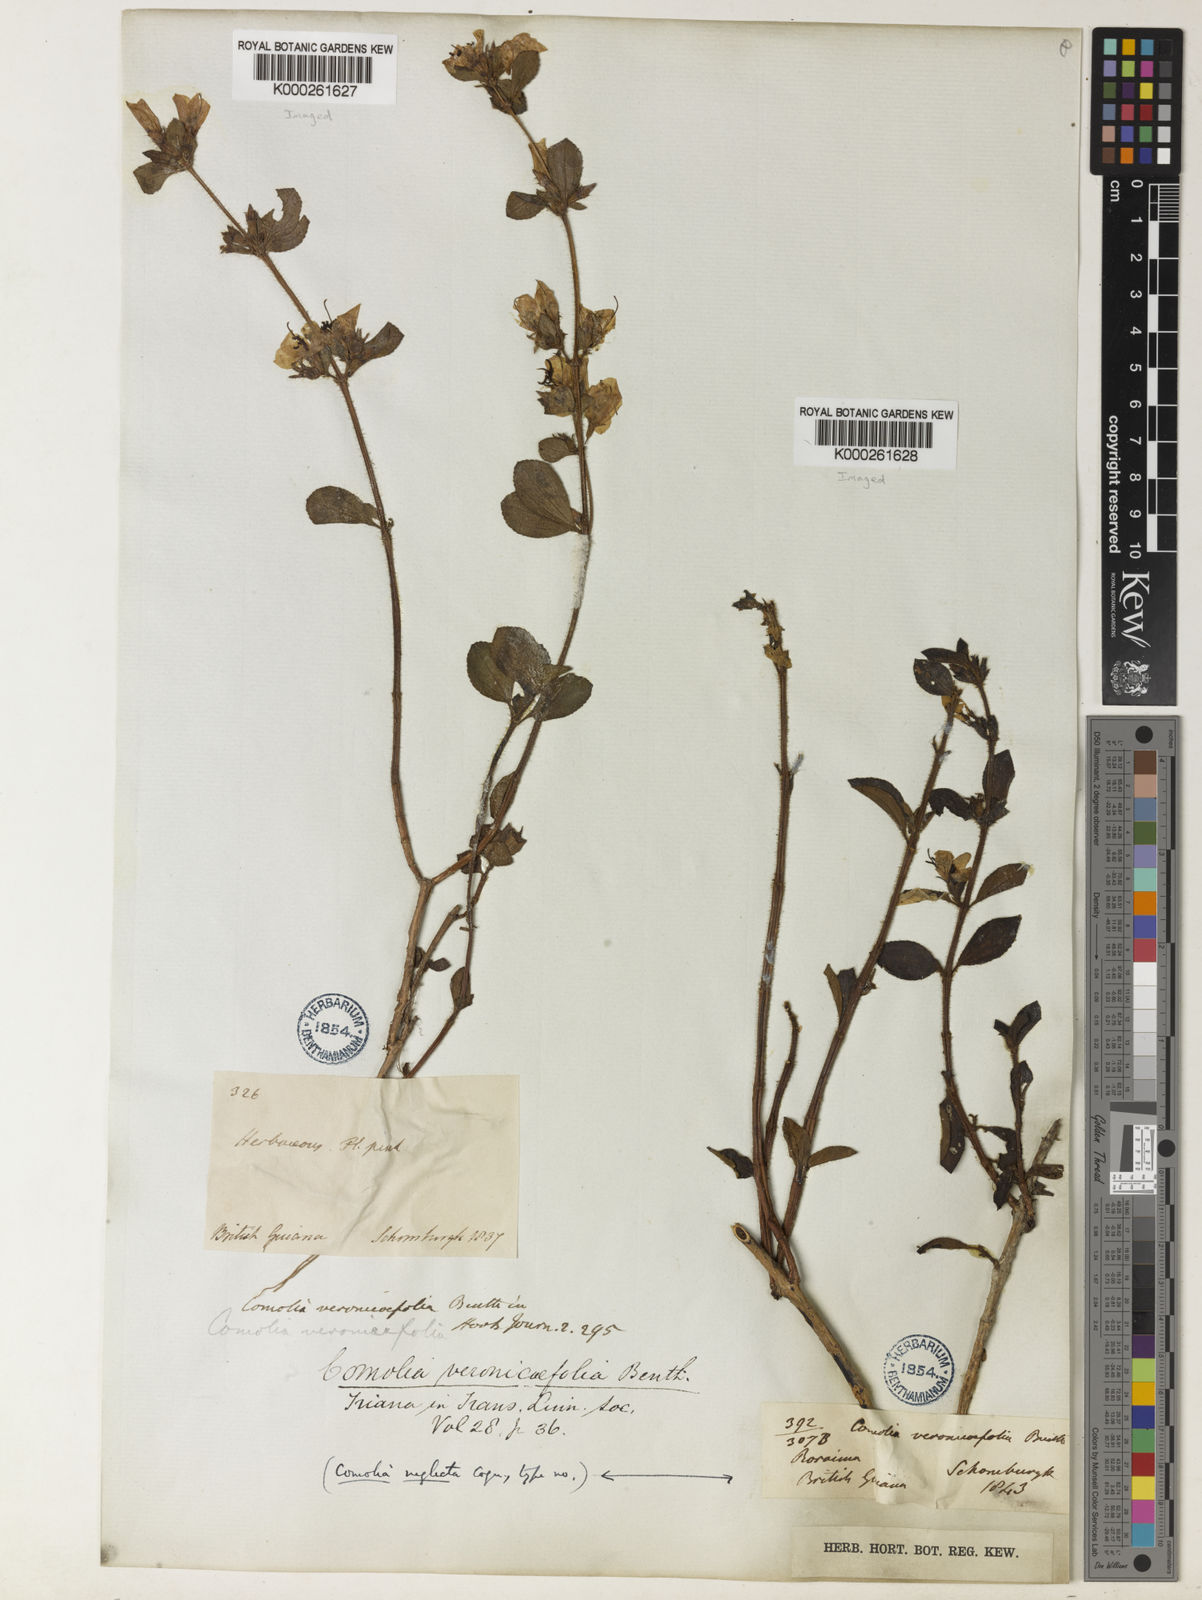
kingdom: Plantae
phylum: Tracheophyta
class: Magnoliopsida
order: Myrtales
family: Melastomataceae
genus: Comolia
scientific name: Comolia villosa
